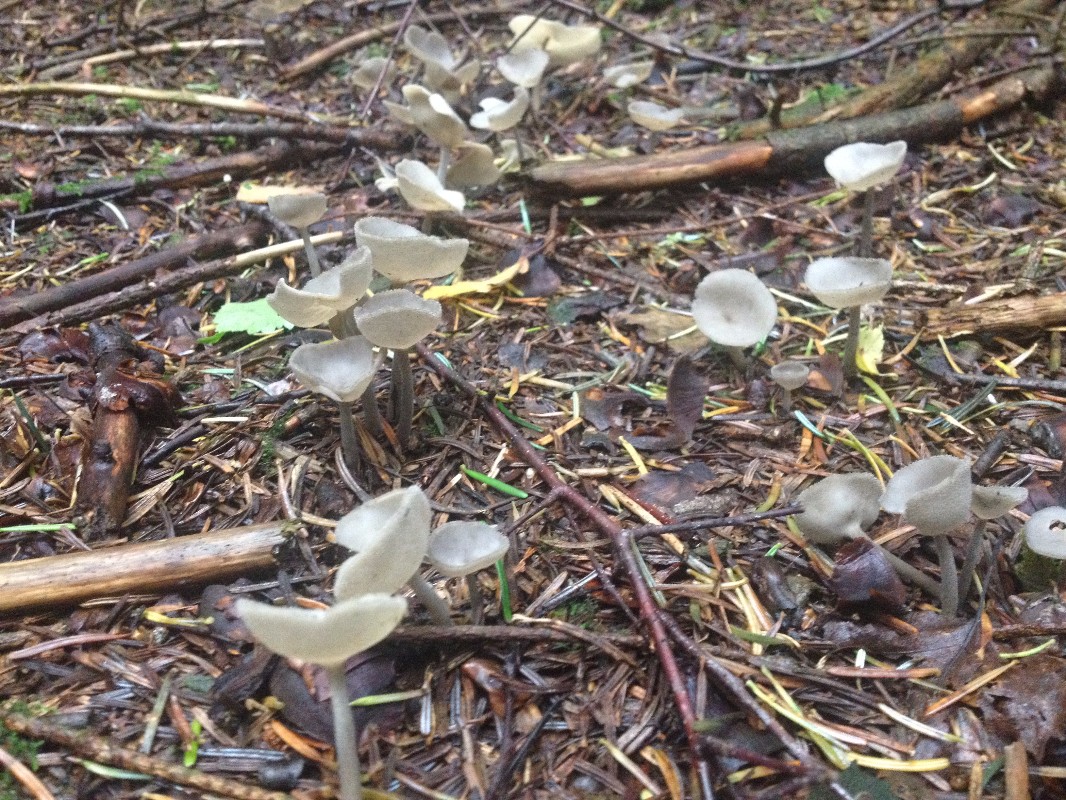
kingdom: Fungi
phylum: Ascomycota
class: Pezizomycetes
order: Pezizales
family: Helvellaceae
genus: Helvella
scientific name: Helvella macropus
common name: højstokket foldhat
